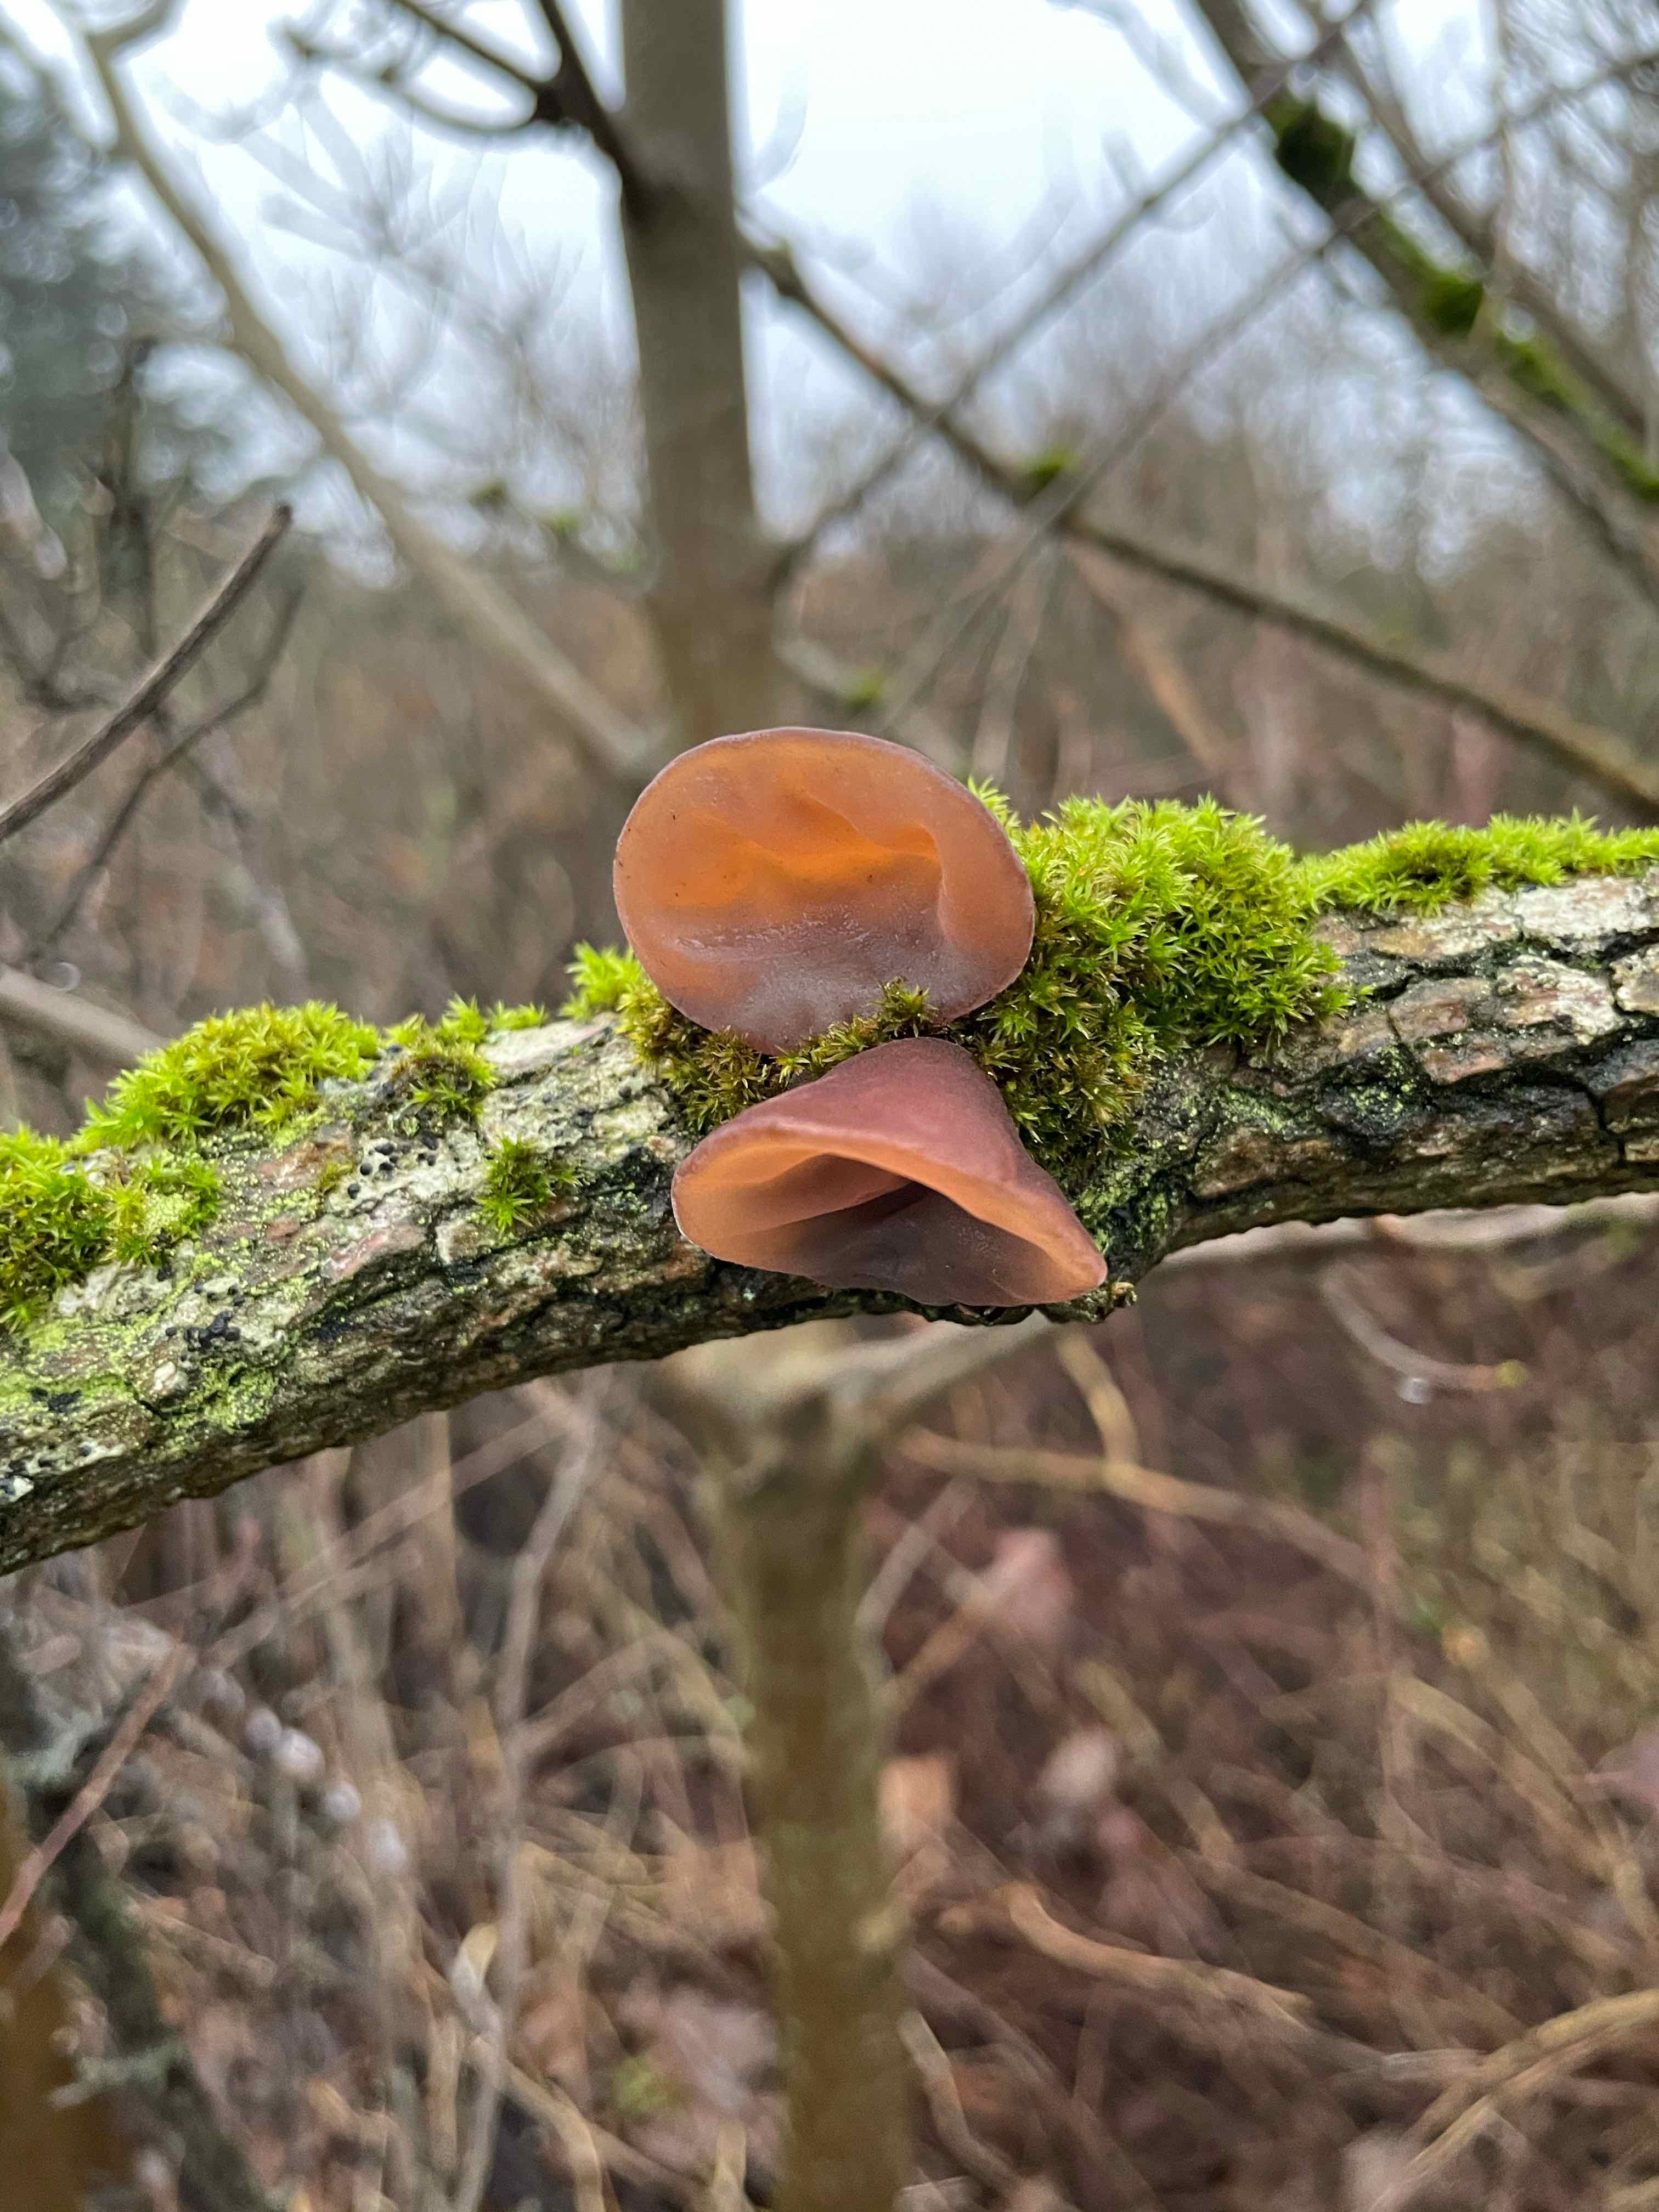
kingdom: Fungi
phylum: Basidiomycota
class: Agaricomycetes
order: Auriculariales
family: Auriculariaceae
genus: Auricularia
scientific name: Auricularia auricula-judae
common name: almindelig judasøre
